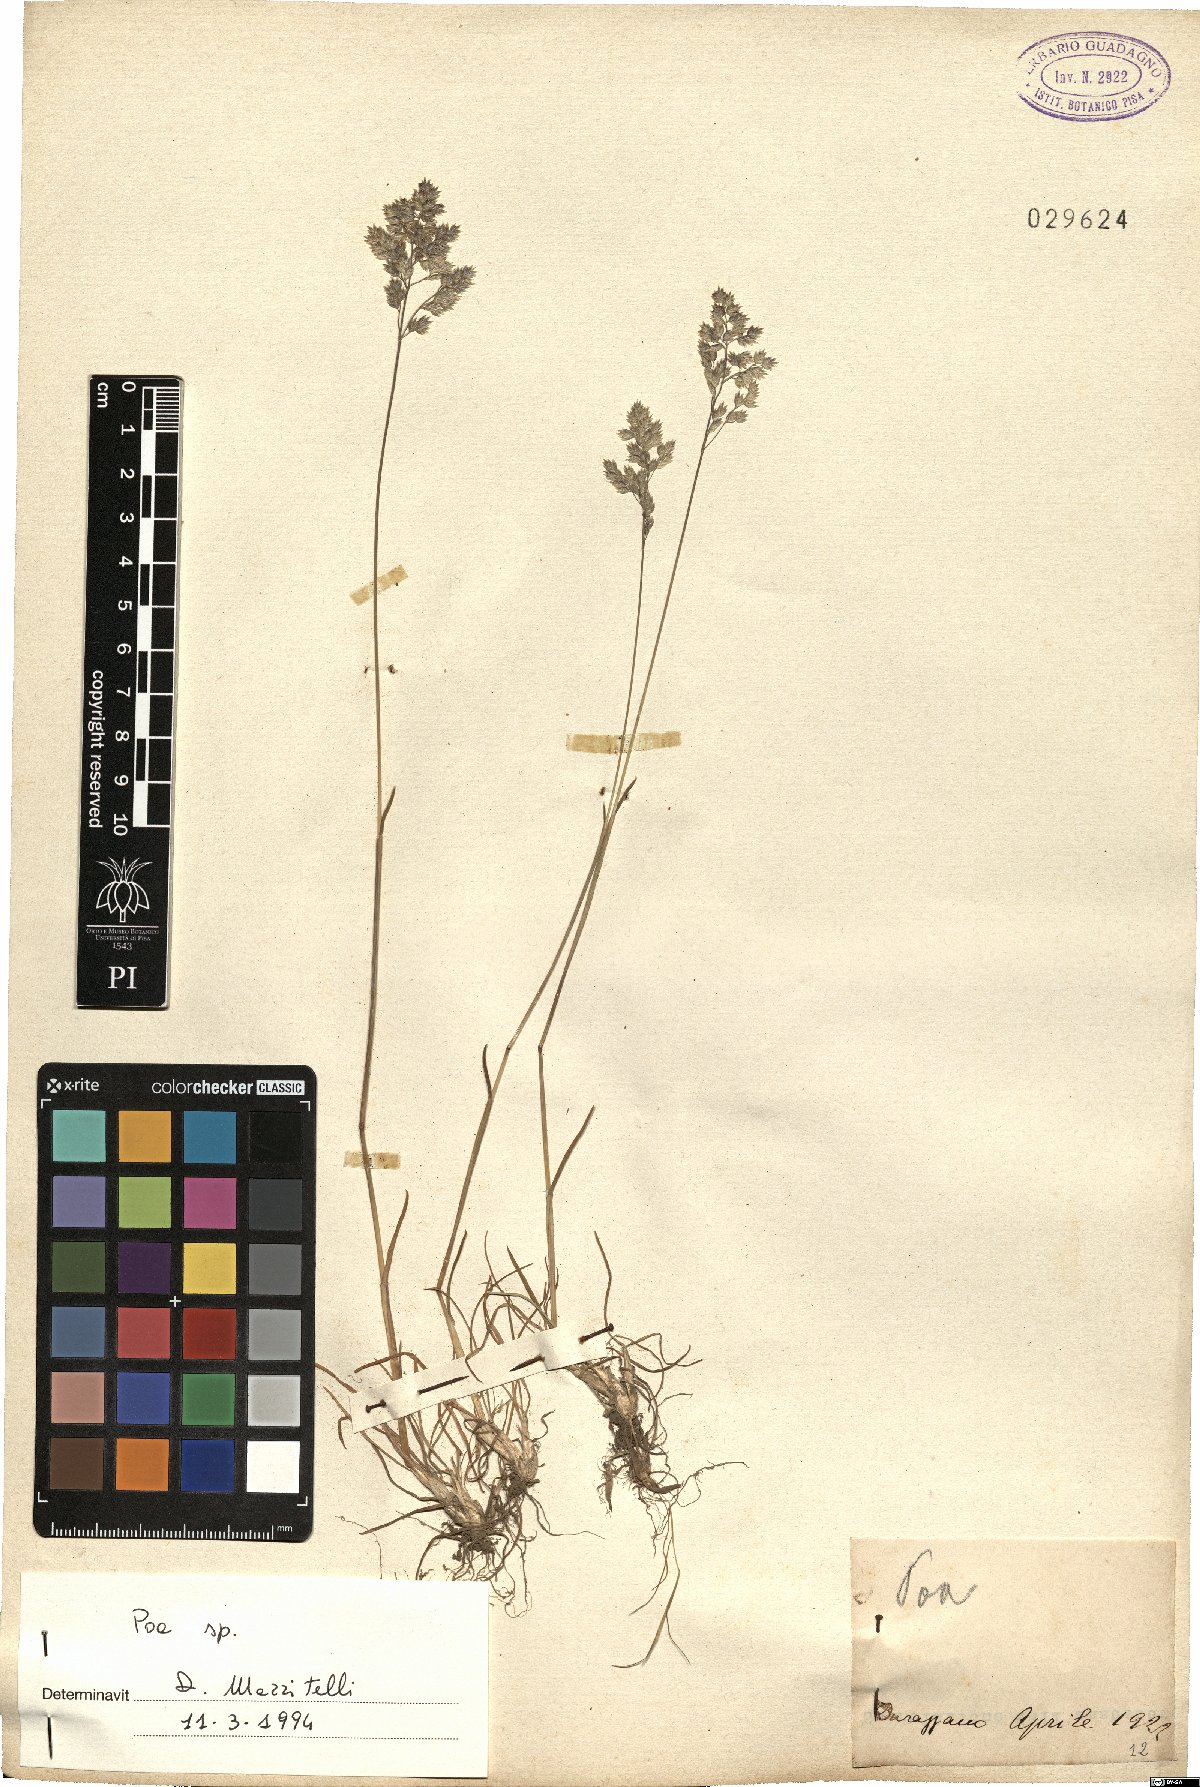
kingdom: Plantae
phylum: Tracheophyta
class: Liliopsida
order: Poales
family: Poaceae
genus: Poa
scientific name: Poa
